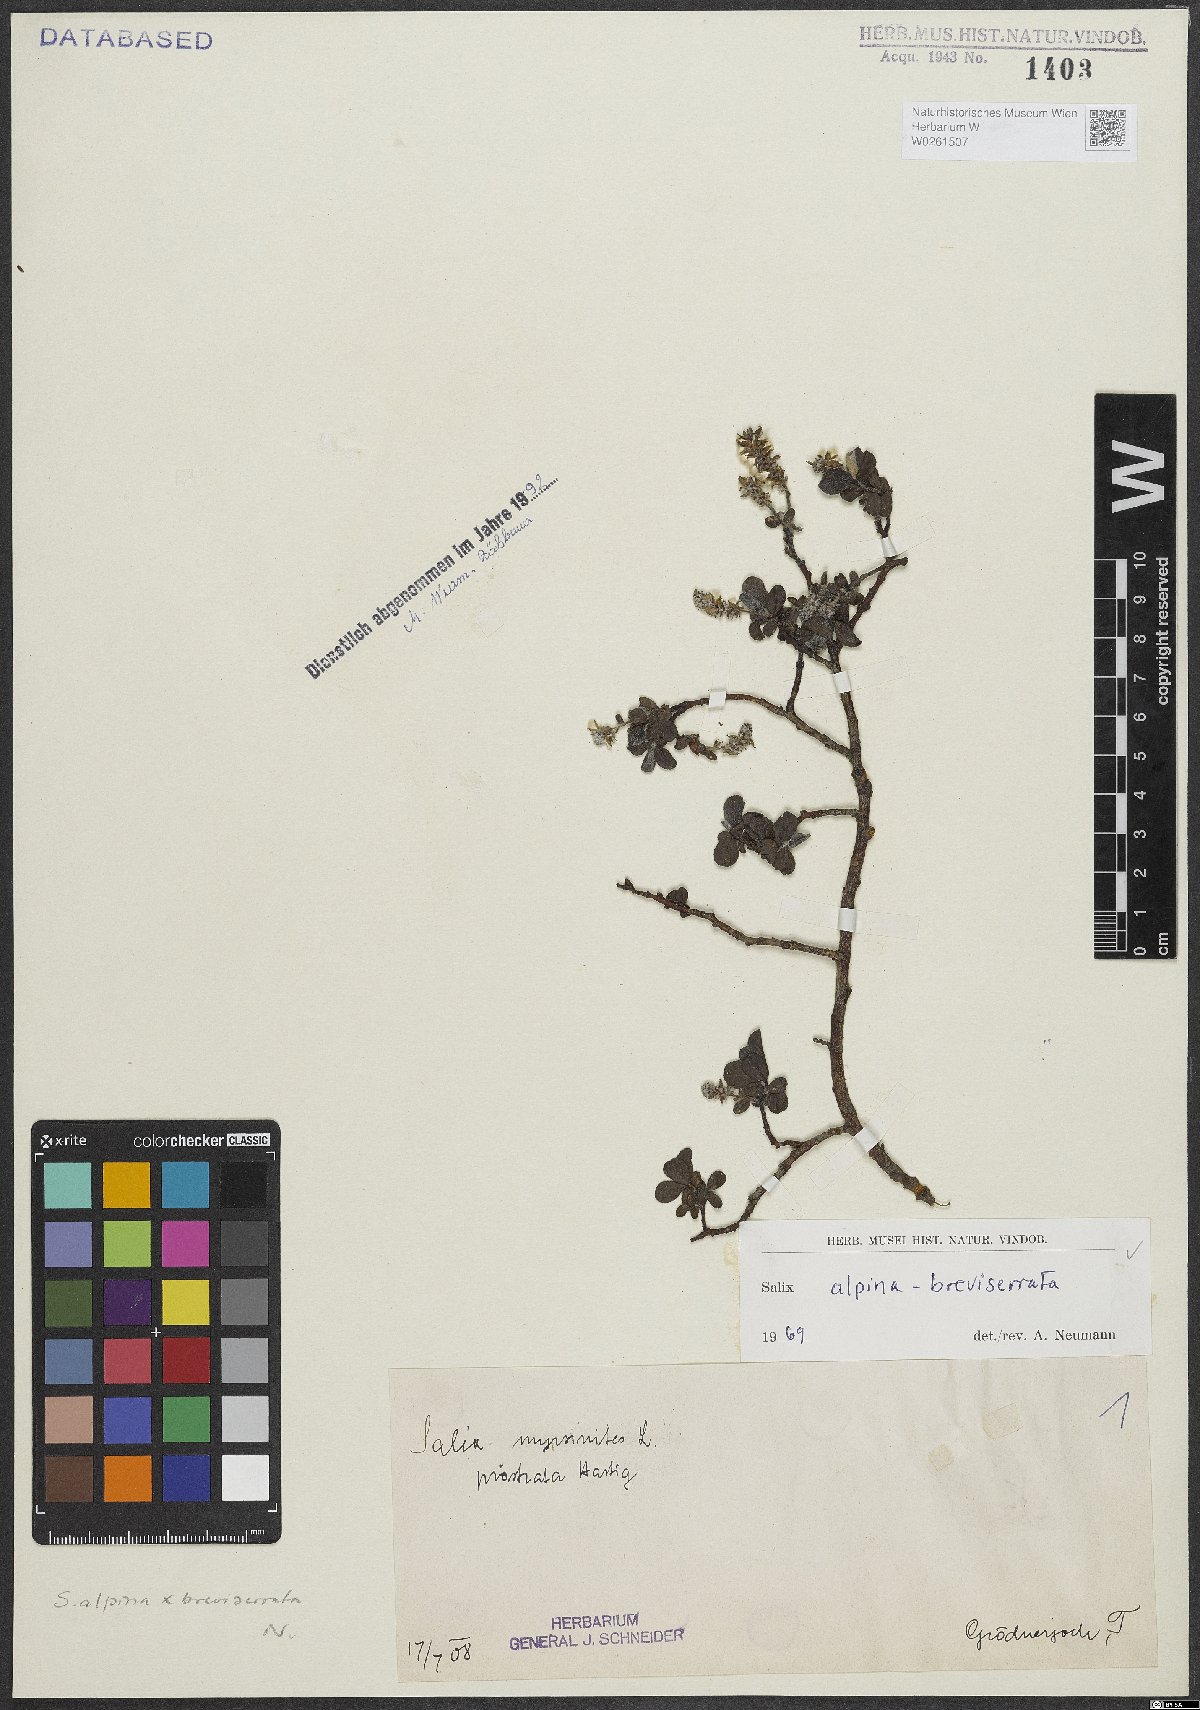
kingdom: Plantae
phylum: Tracheophyta
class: Magnoliopsida
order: Malpighiales
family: Salicaceae
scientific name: Salicaceae
